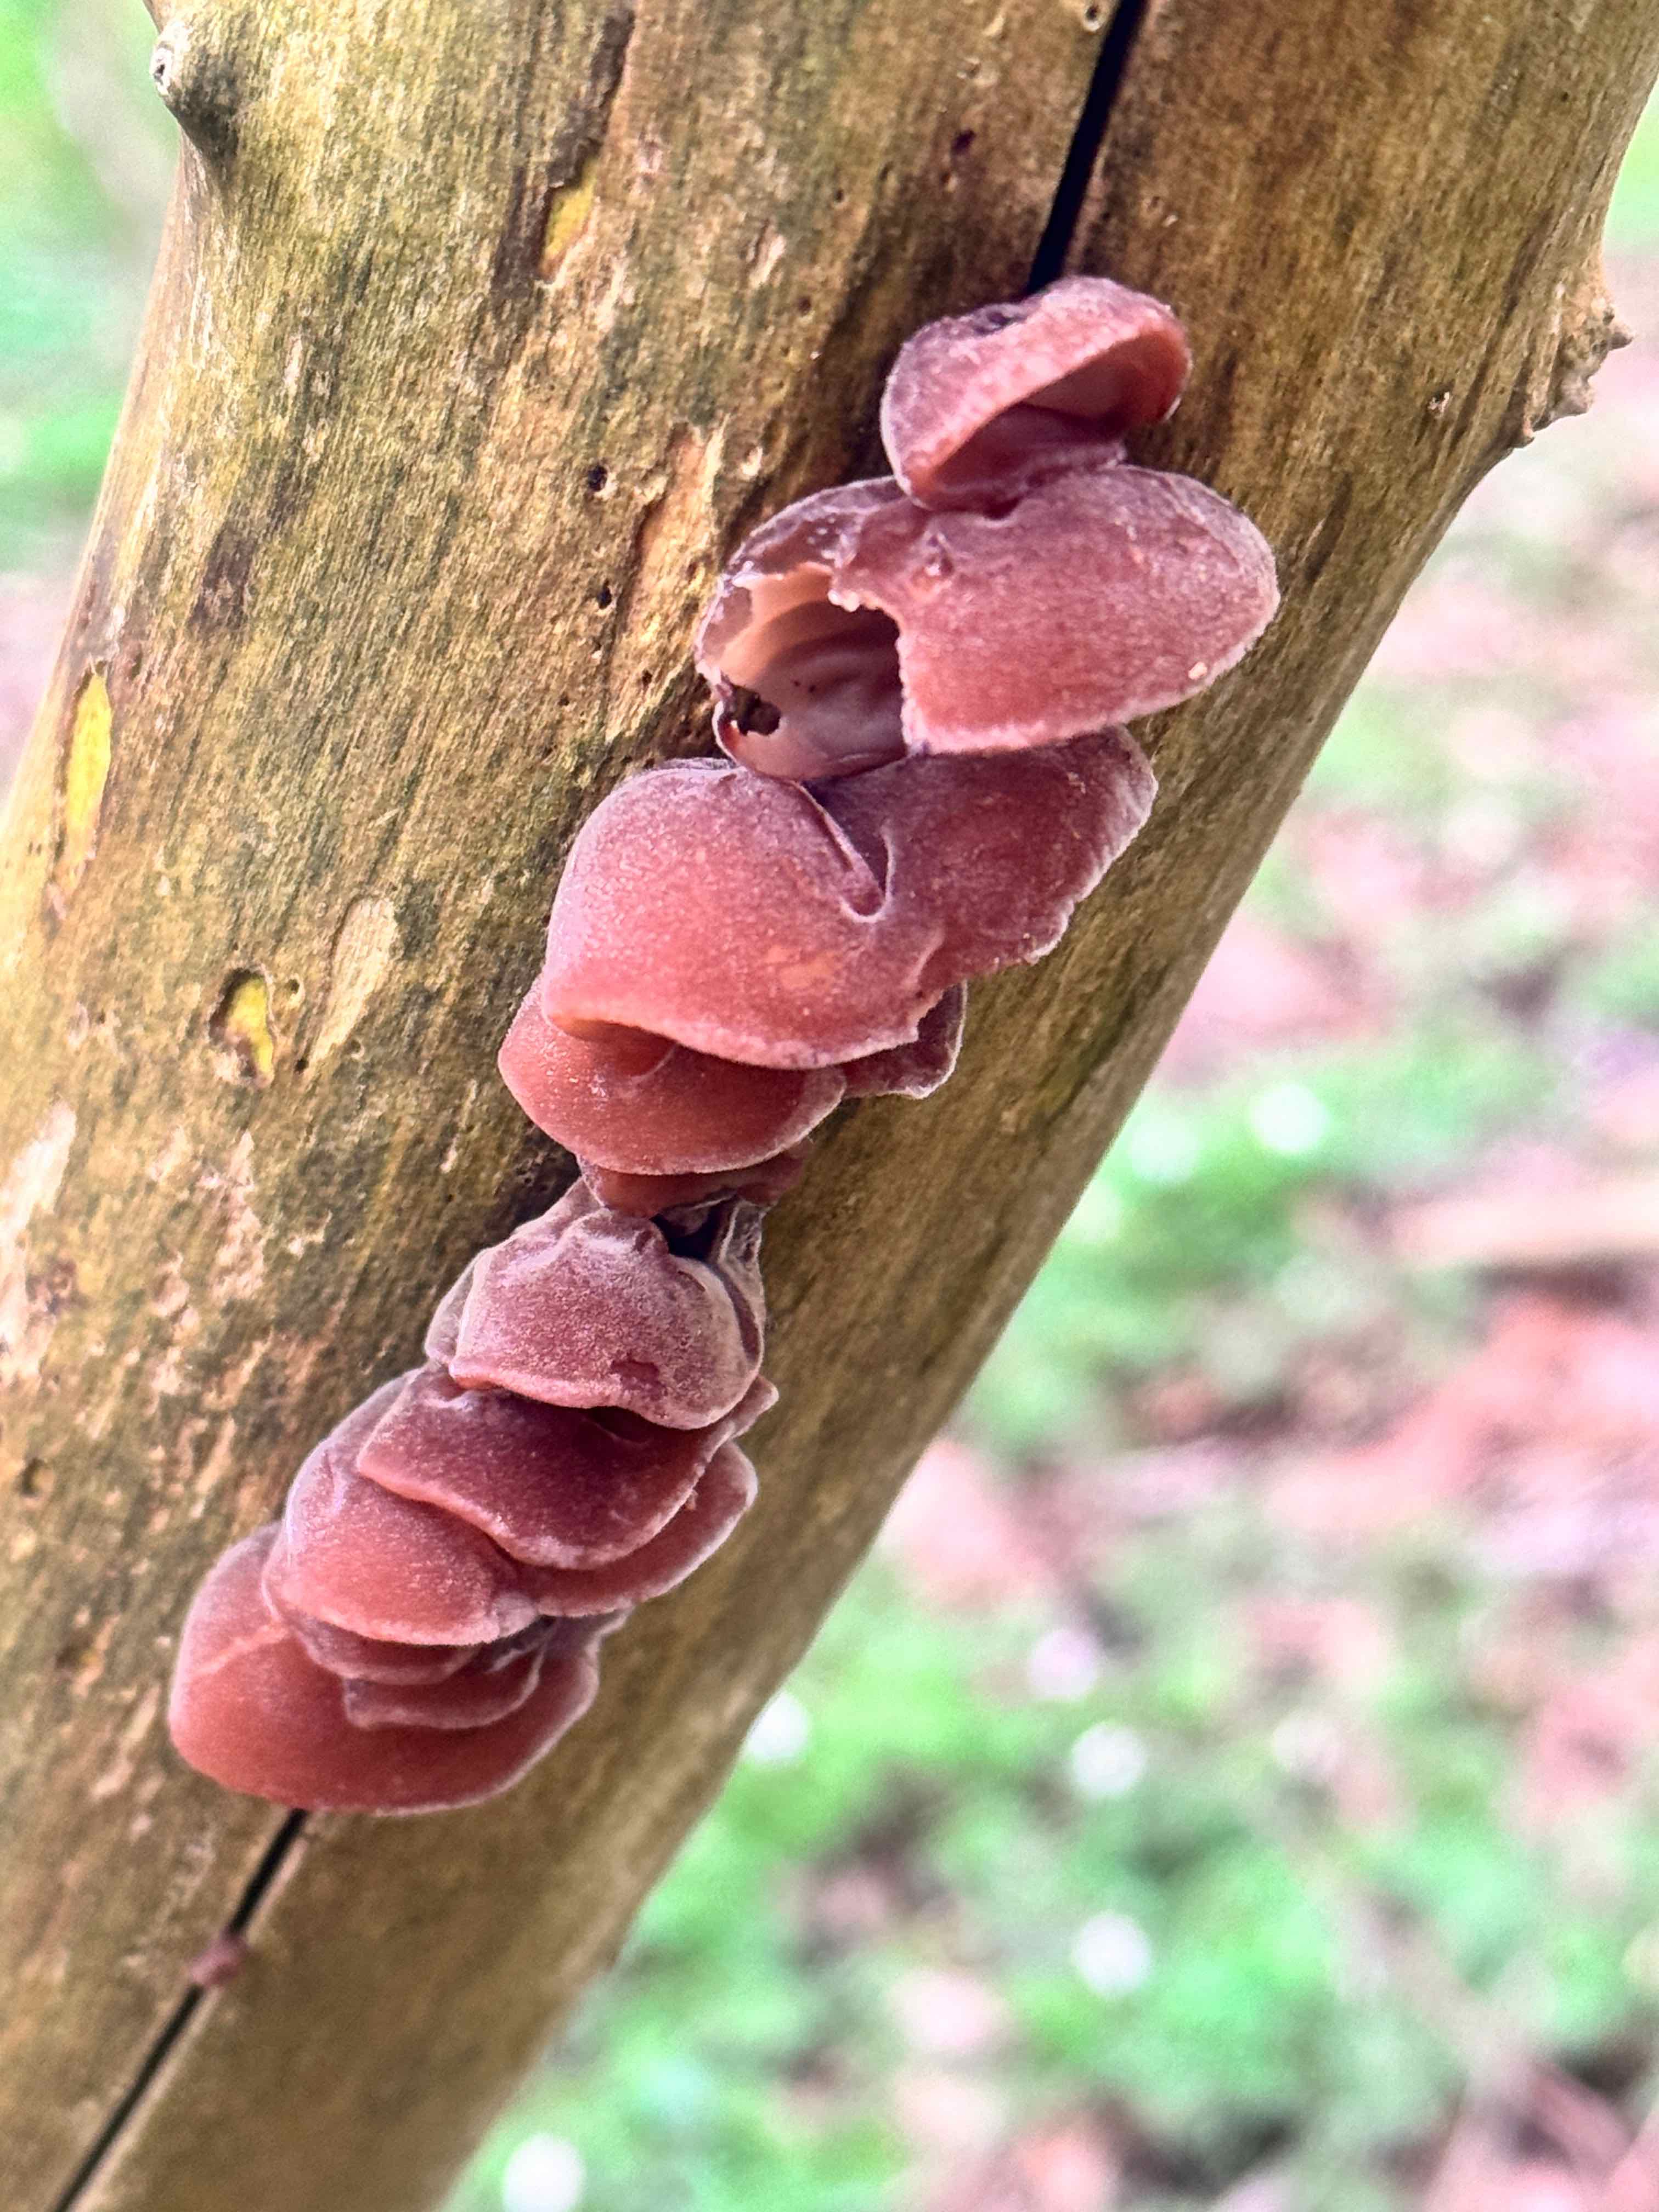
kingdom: Fungi
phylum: Basidiomycota
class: Agaricomycetes
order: Auriculariales
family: Auriculariaceae
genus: Auricularia
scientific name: Auricularia auricula-judae
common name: almindelig judasøre
